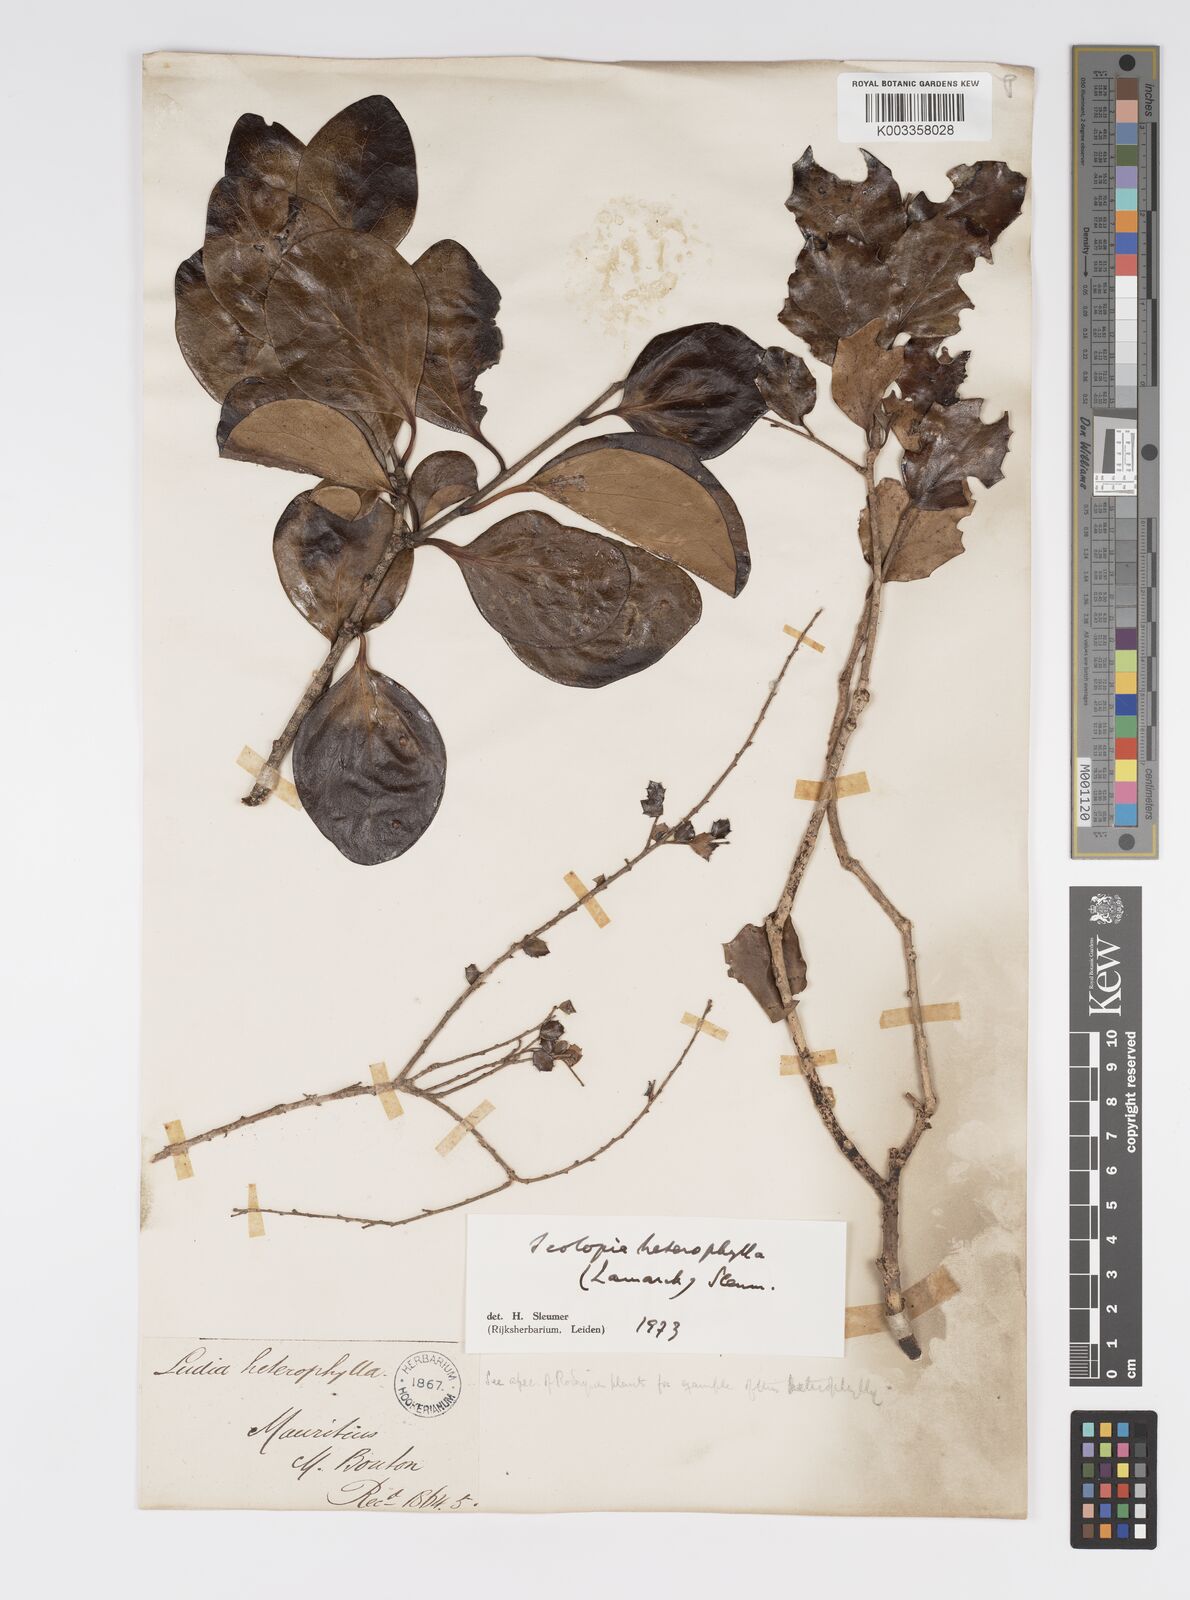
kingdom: Plantae
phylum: Tracheophyta
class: Magnoliopsida
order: Malpighiales
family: Salicaceae
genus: Scolopia
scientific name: Scolopia heterophylla
